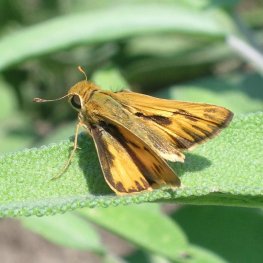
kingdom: Animalia
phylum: Arthropoda
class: Insecta
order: Lepidoptera
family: Hesperiidae
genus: Hylephila
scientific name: Hylephila phyleus
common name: Fiery Skipper
